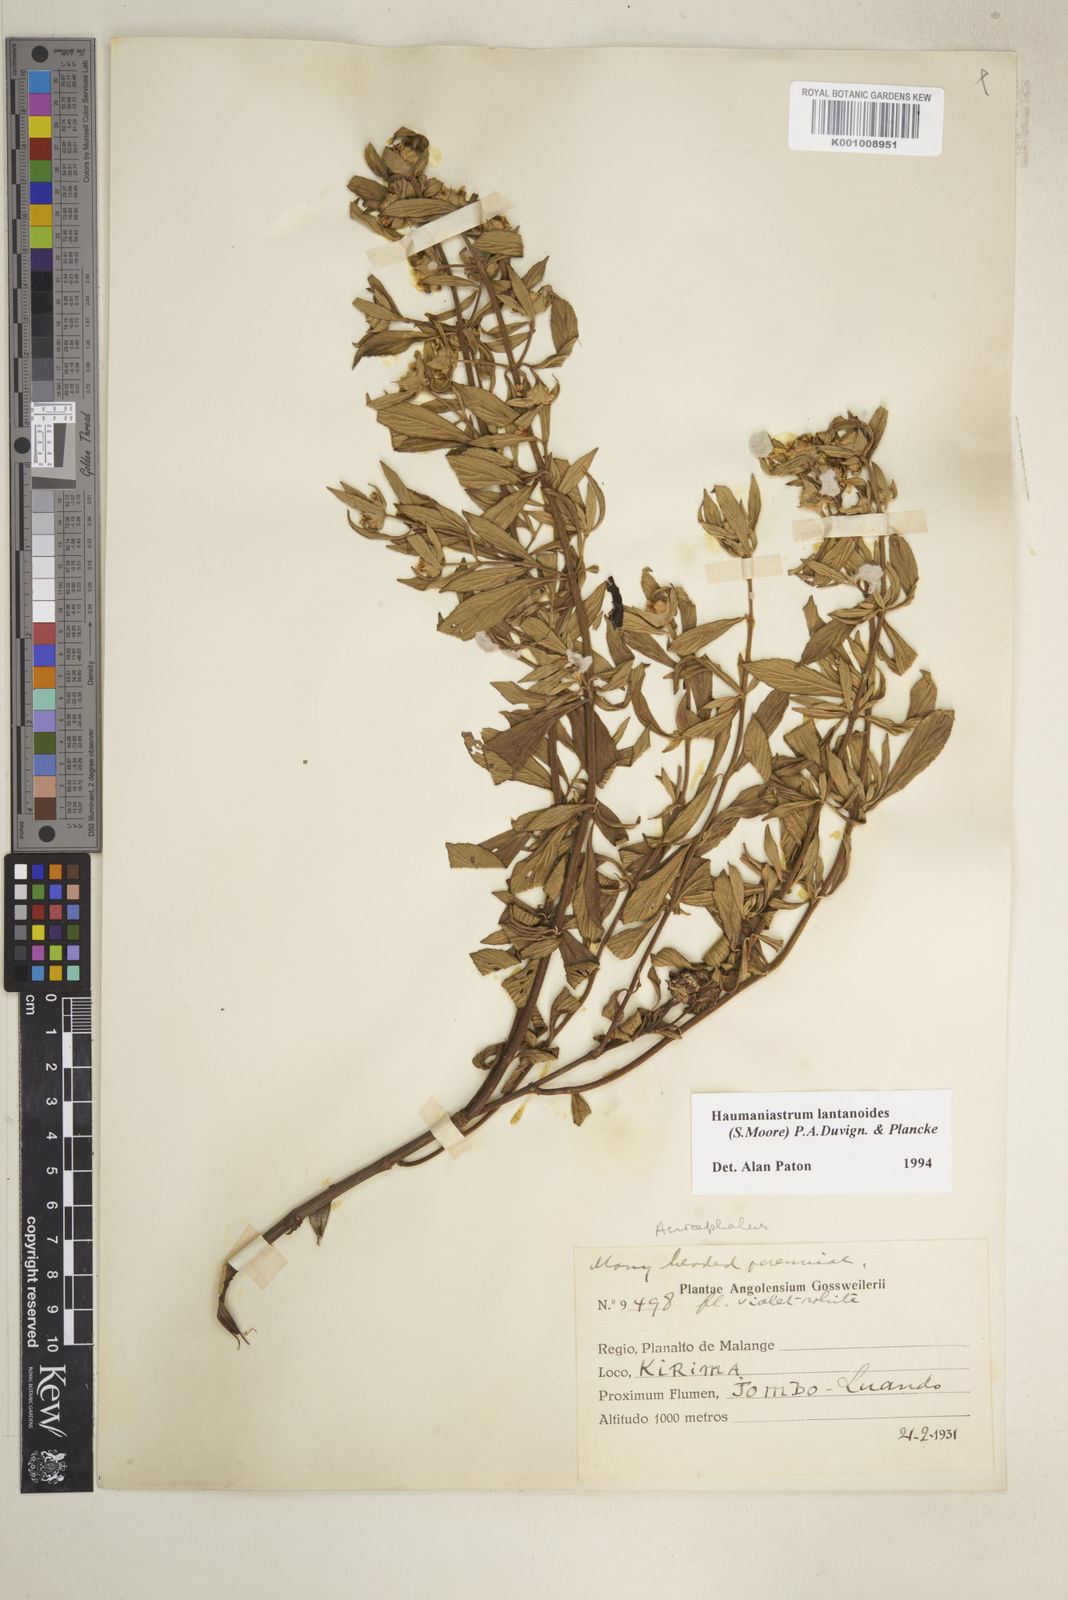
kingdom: Plantae
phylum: Tracheophyta
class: Magnoliopsida
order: Lamiales
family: Lamiaceae
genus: Haumaniastrum
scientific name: Haumaniastrum lantanoides
